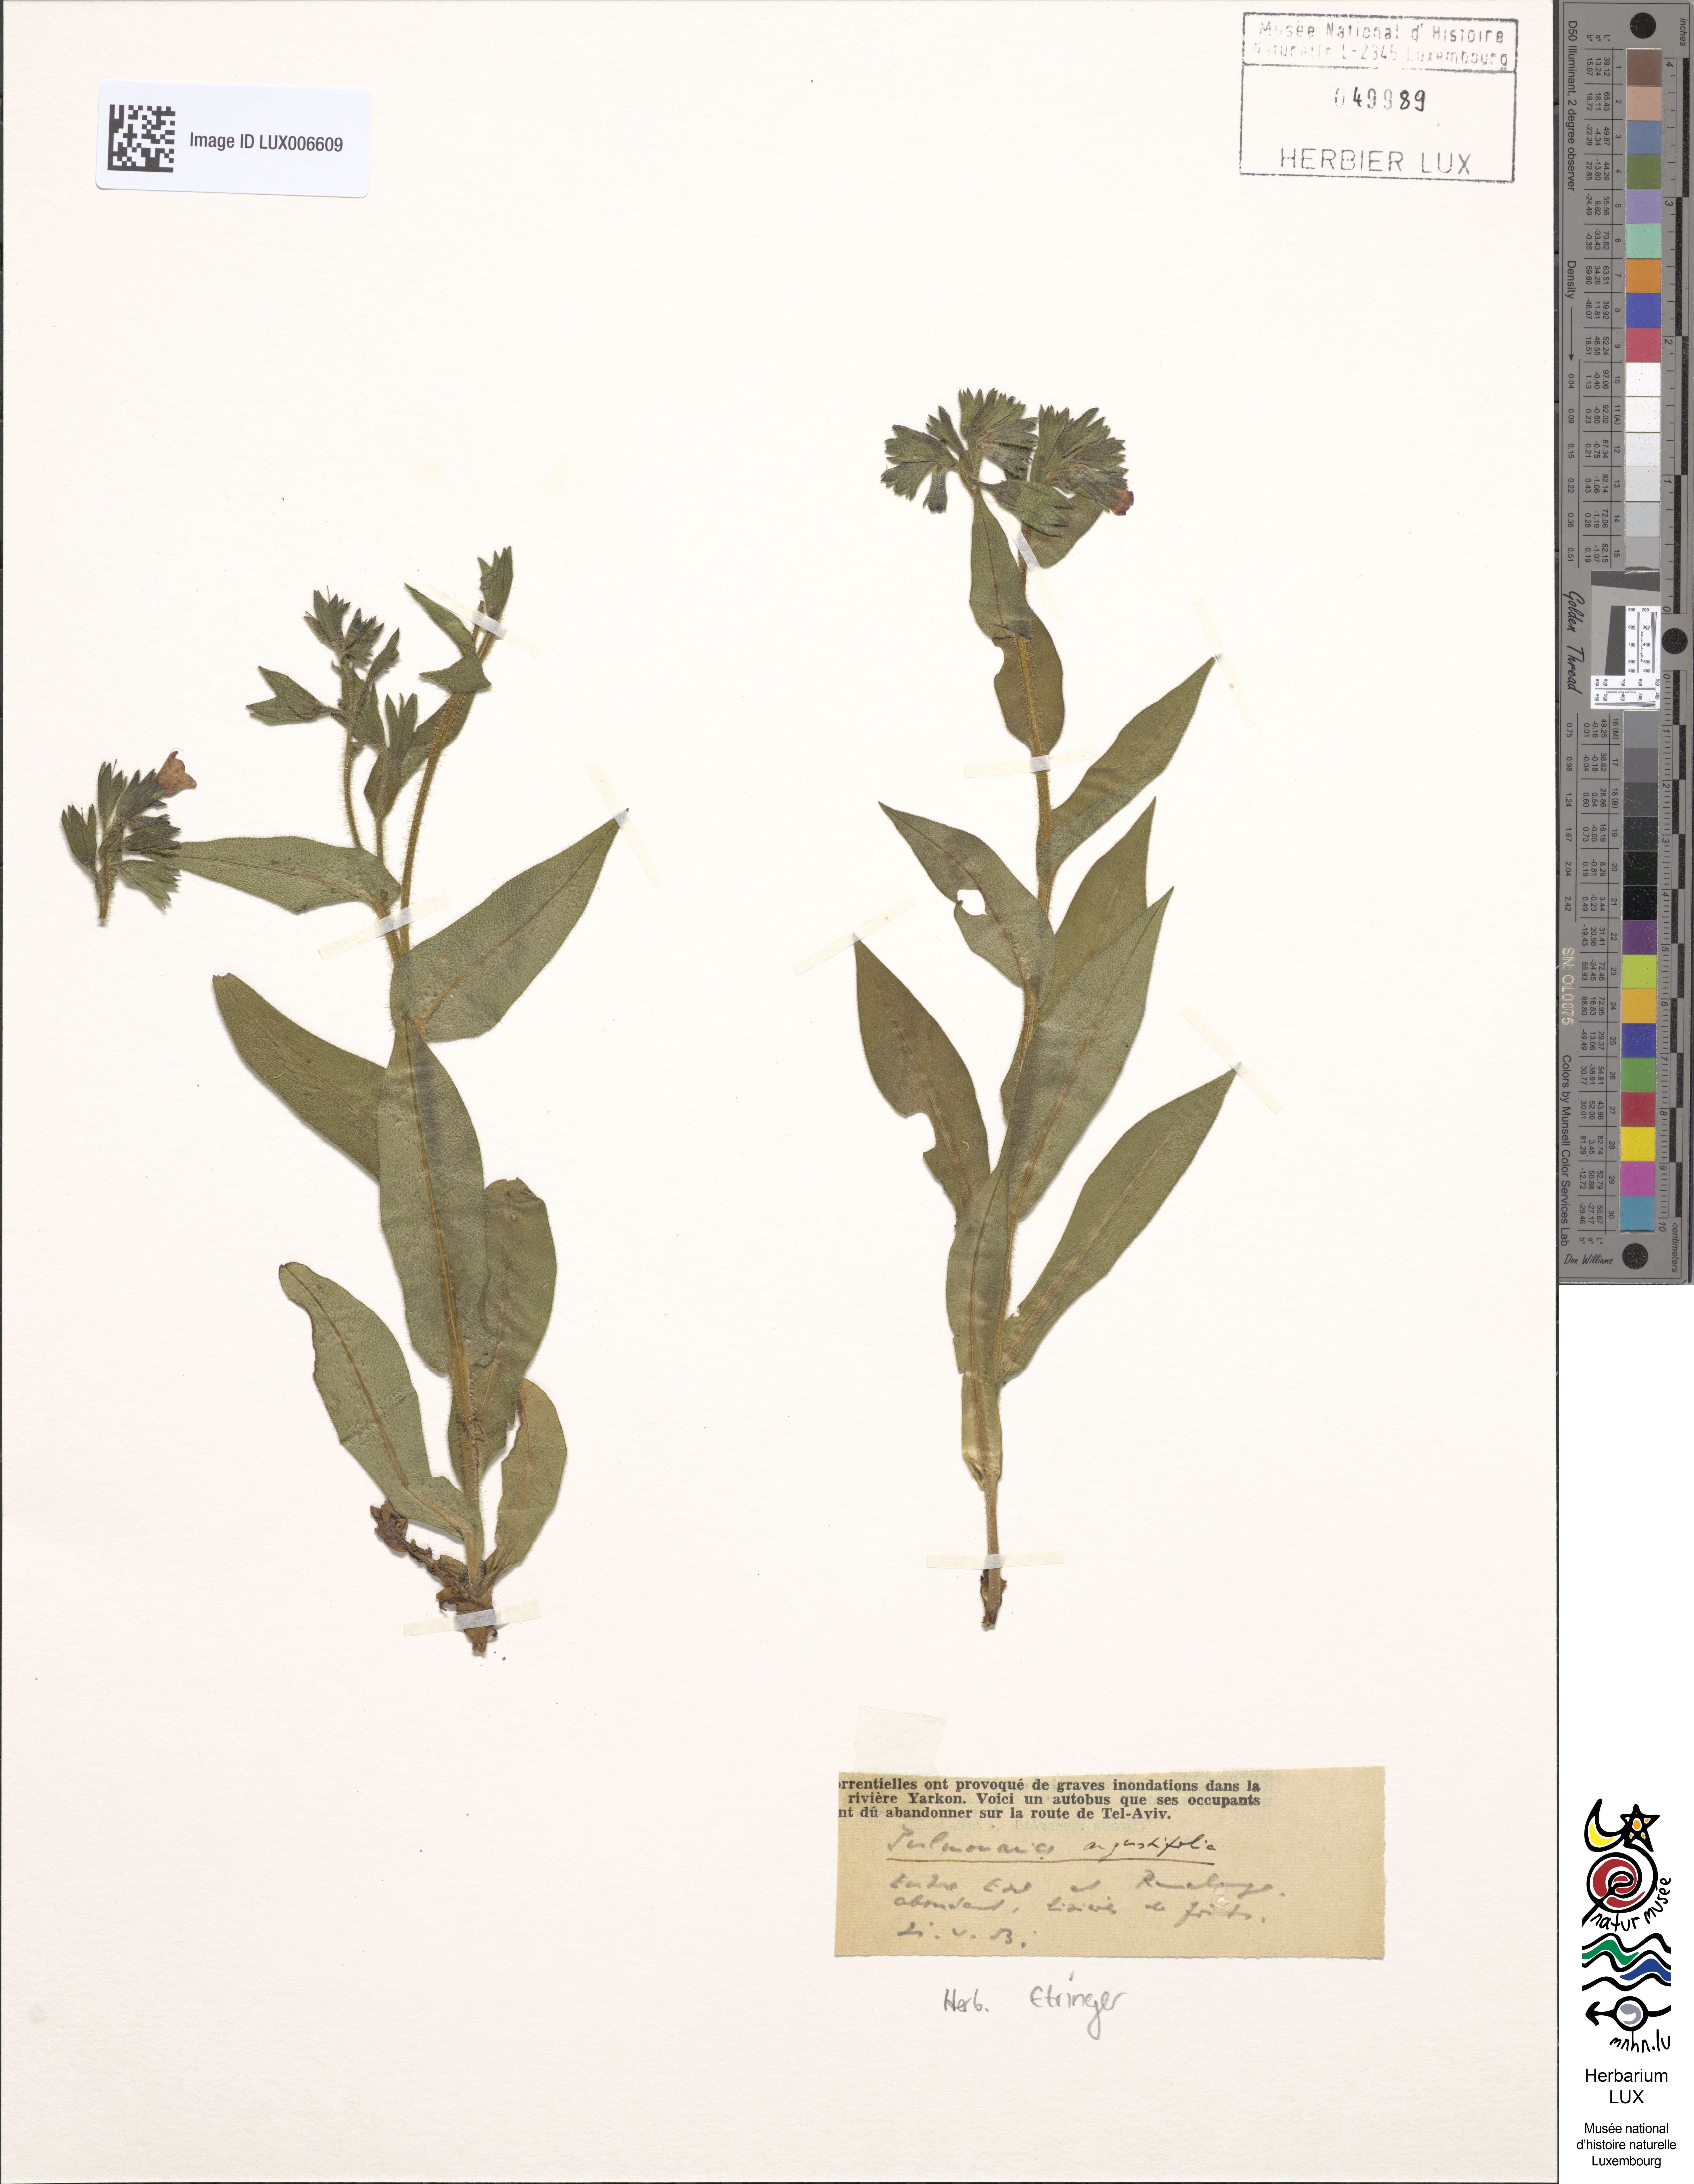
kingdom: Plantae
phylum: Tracheophyta
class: Magnoliopsida
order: Boraginales
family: Boraginaceae
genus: Pulmonaria
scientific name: Pulmonaria angustifolia
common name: Blue cowslip
